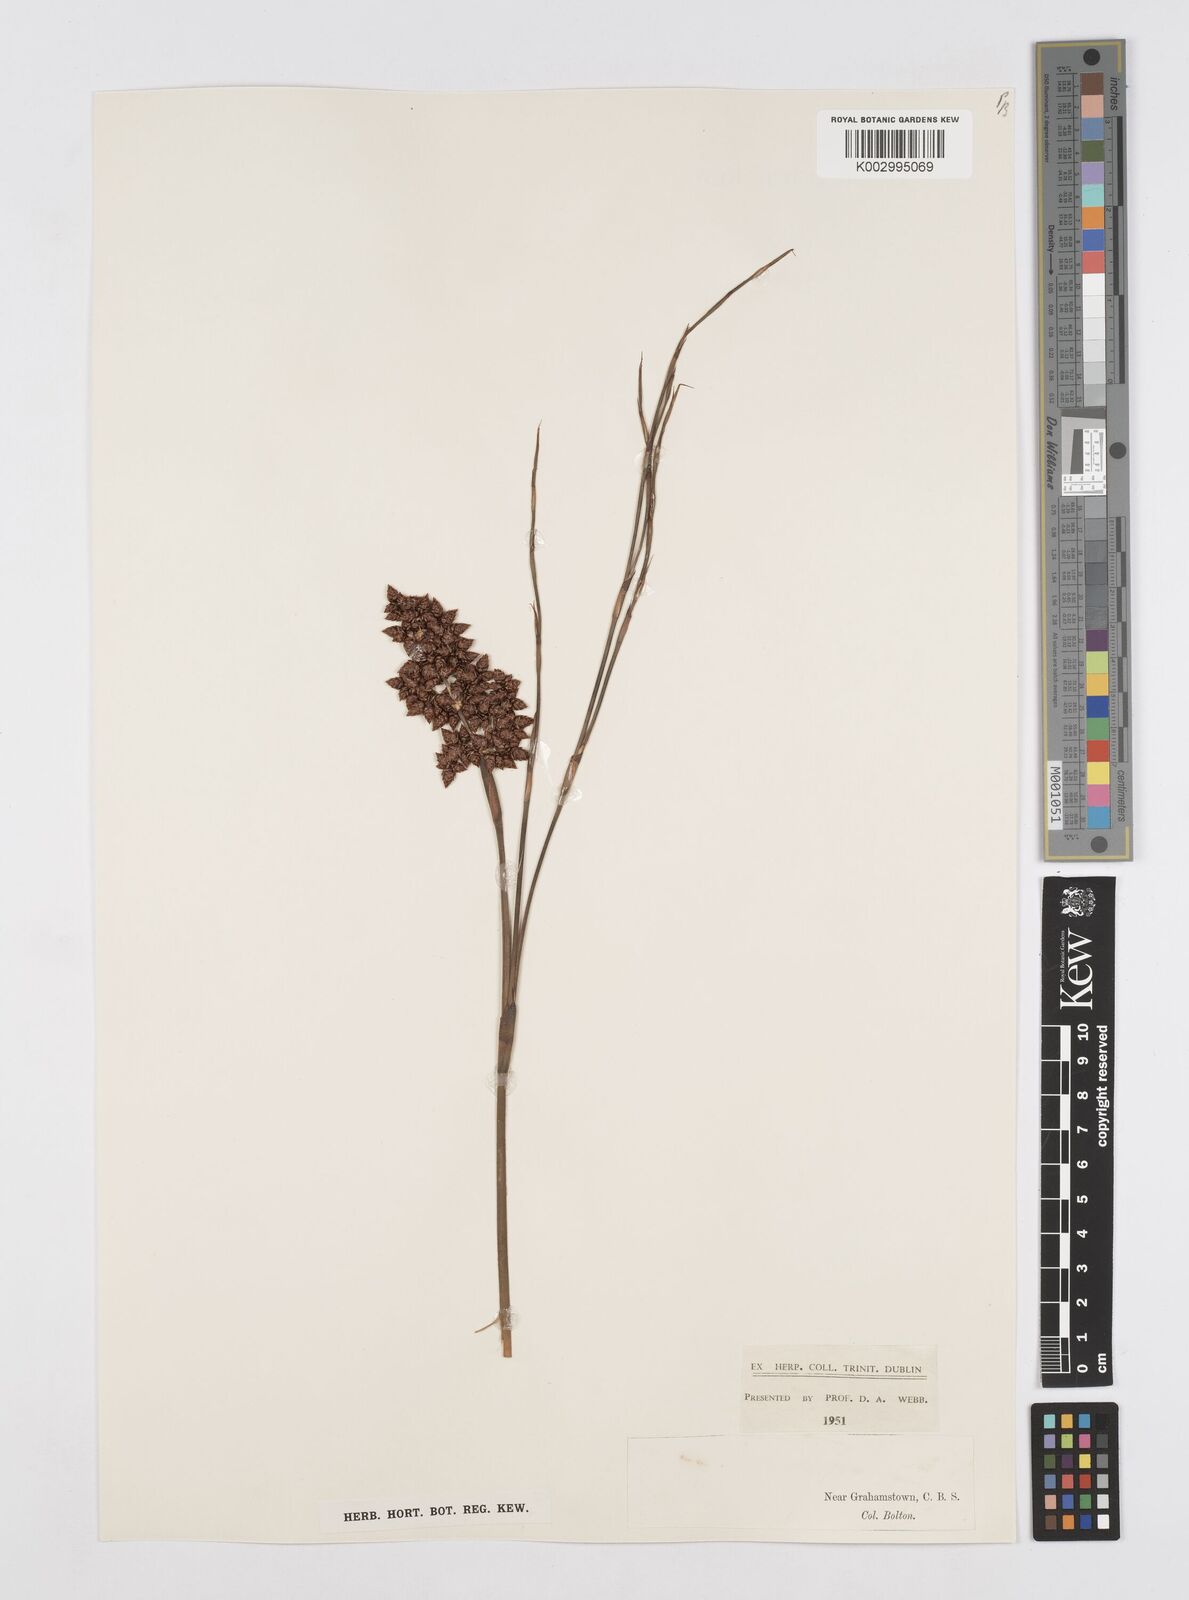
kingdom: Plantae
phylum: Tracheophyta
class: Liliopsida
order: Poales
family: Restionaceae
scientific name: Restionaceae
